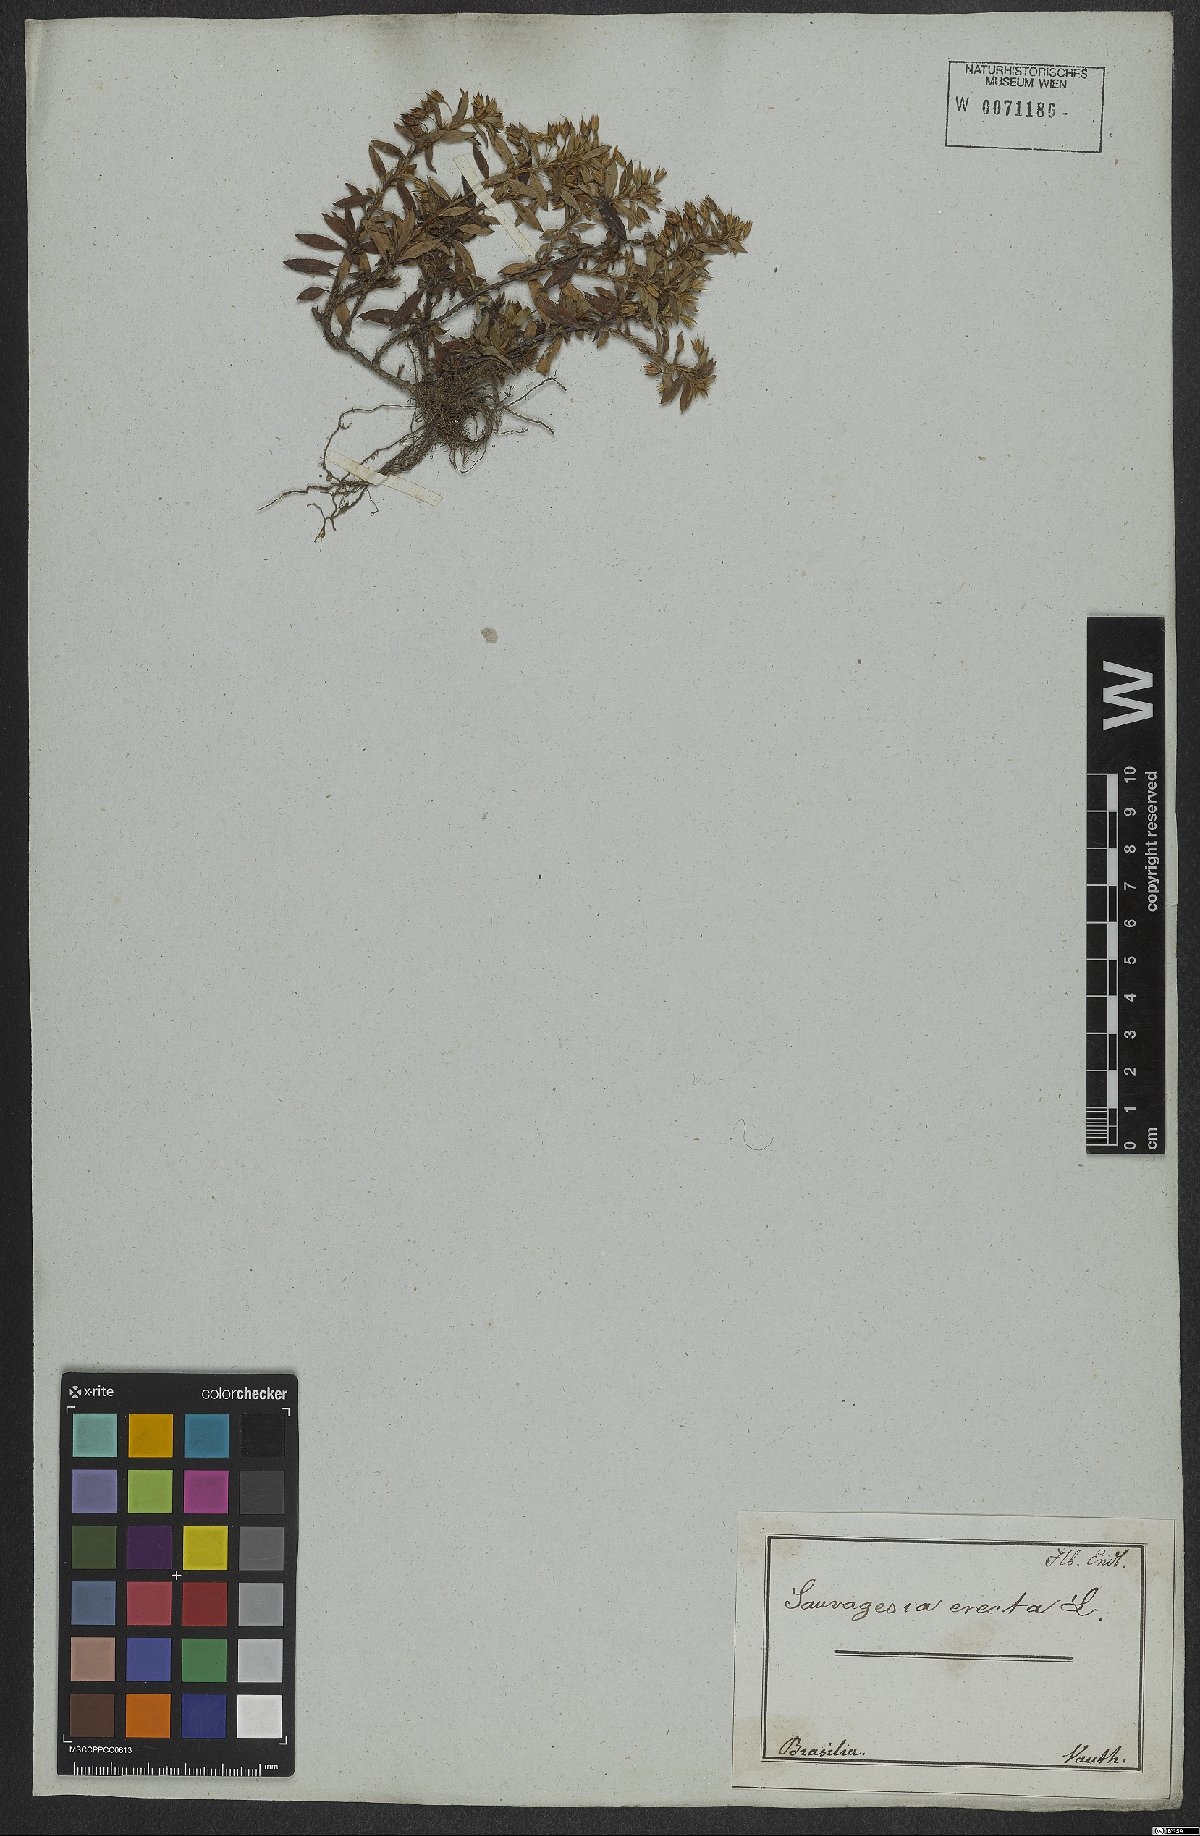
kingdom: Plantae
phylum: Tracheophyta
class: Magnoliopsida
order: Malpighiales
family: Ochnaceae
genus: Sauvagesia
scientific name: Sauvagesia erecta
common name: Creole tea
